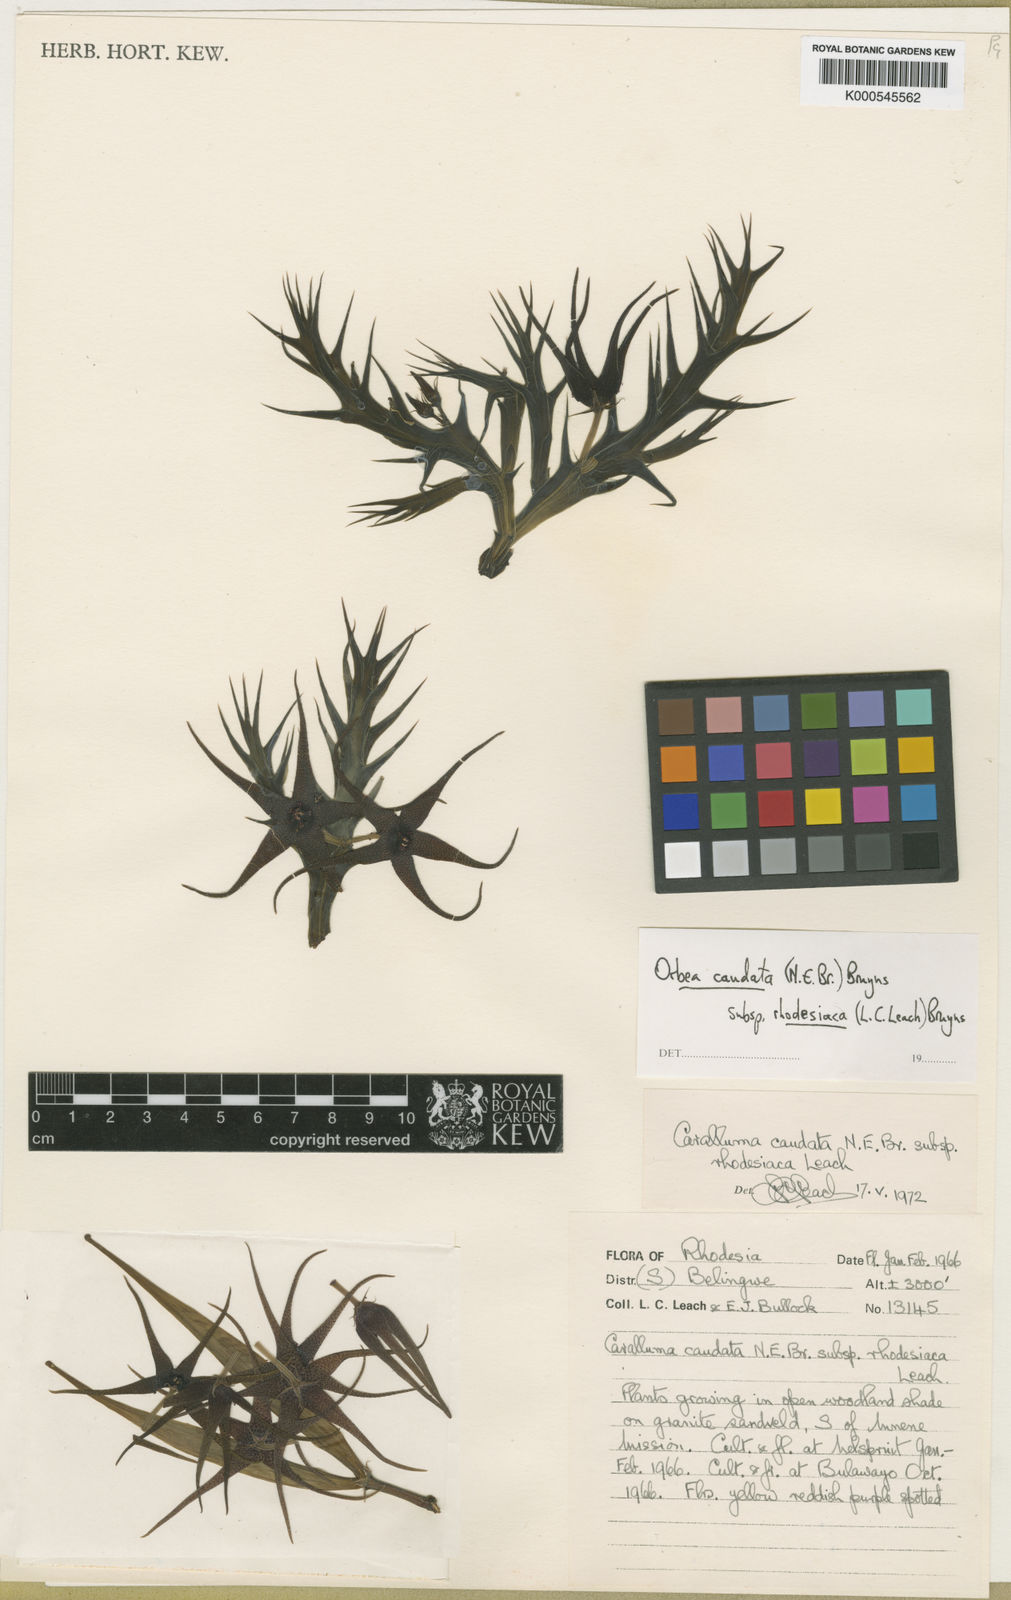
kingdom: Plantae
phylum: Tracheophyta
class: Magnoliopsida
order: Gentianales
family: Apocynaceae
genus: Ceropegia
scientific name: Ceropegia caudata
